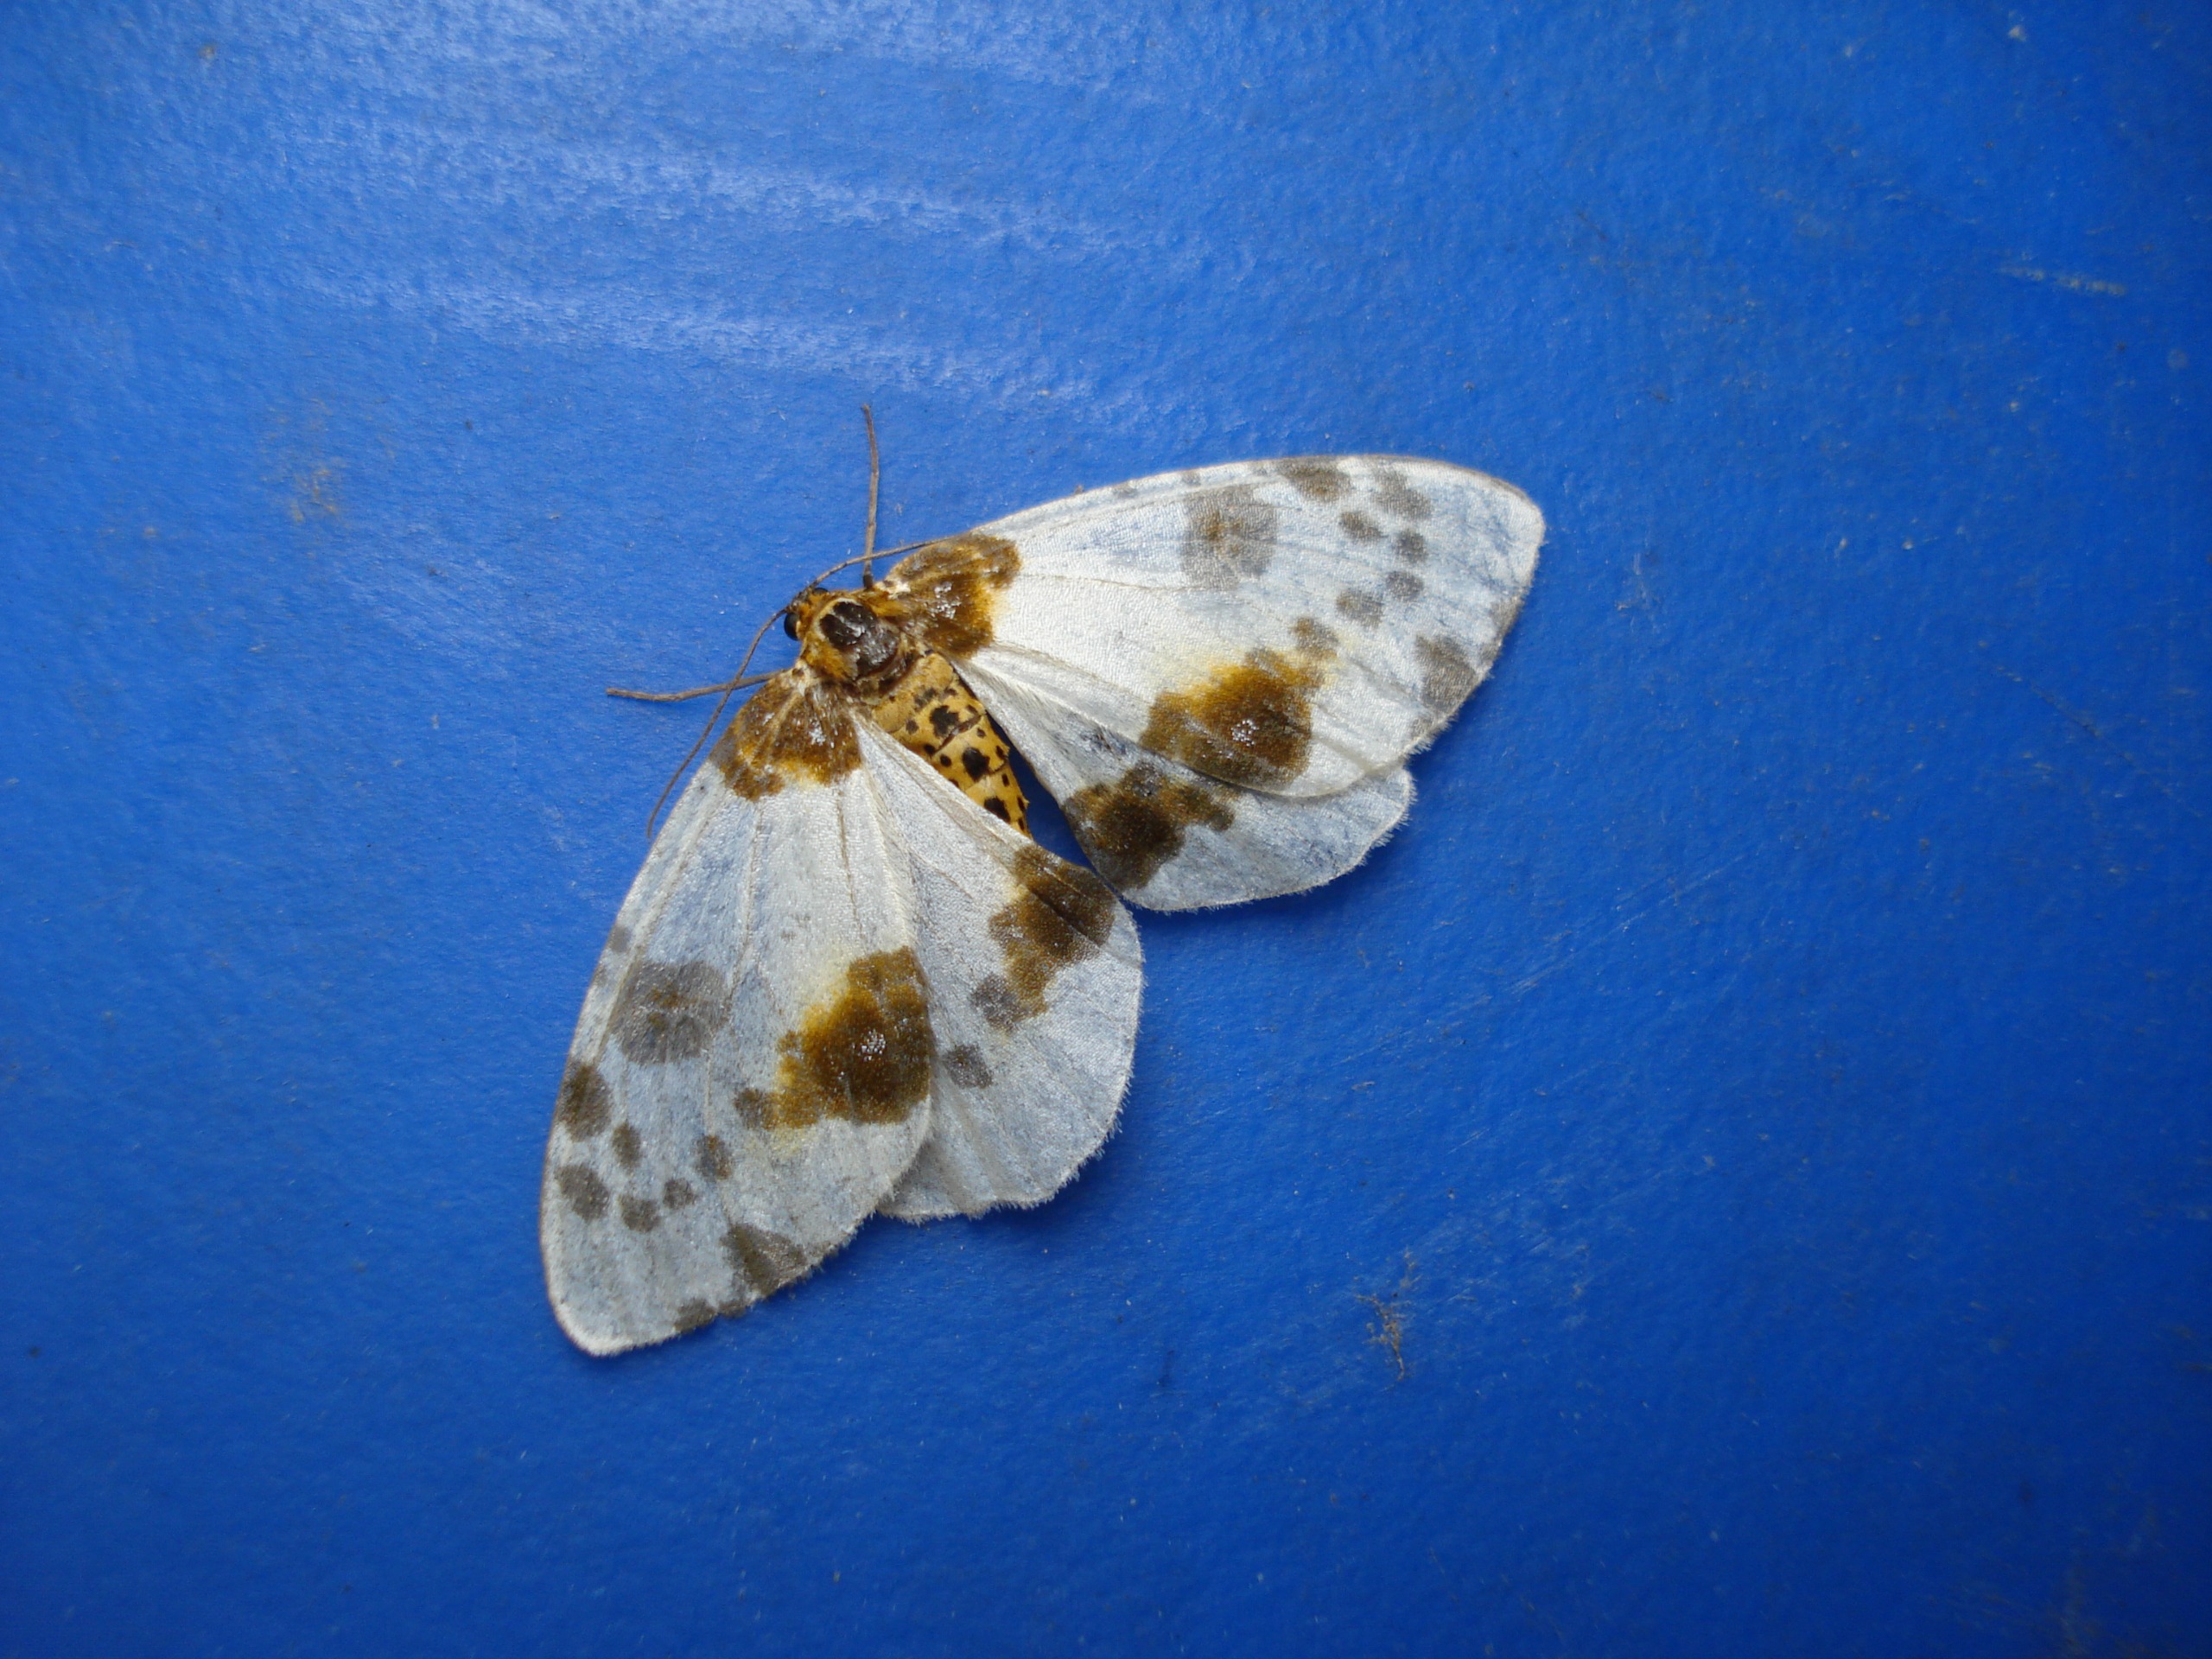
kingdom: Animalia
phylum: Arthropoda
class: Insecta
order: Lepidoptera
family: Geometridae
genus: Abraxas
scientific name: Abraxas sylvata
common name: Elmemåler
